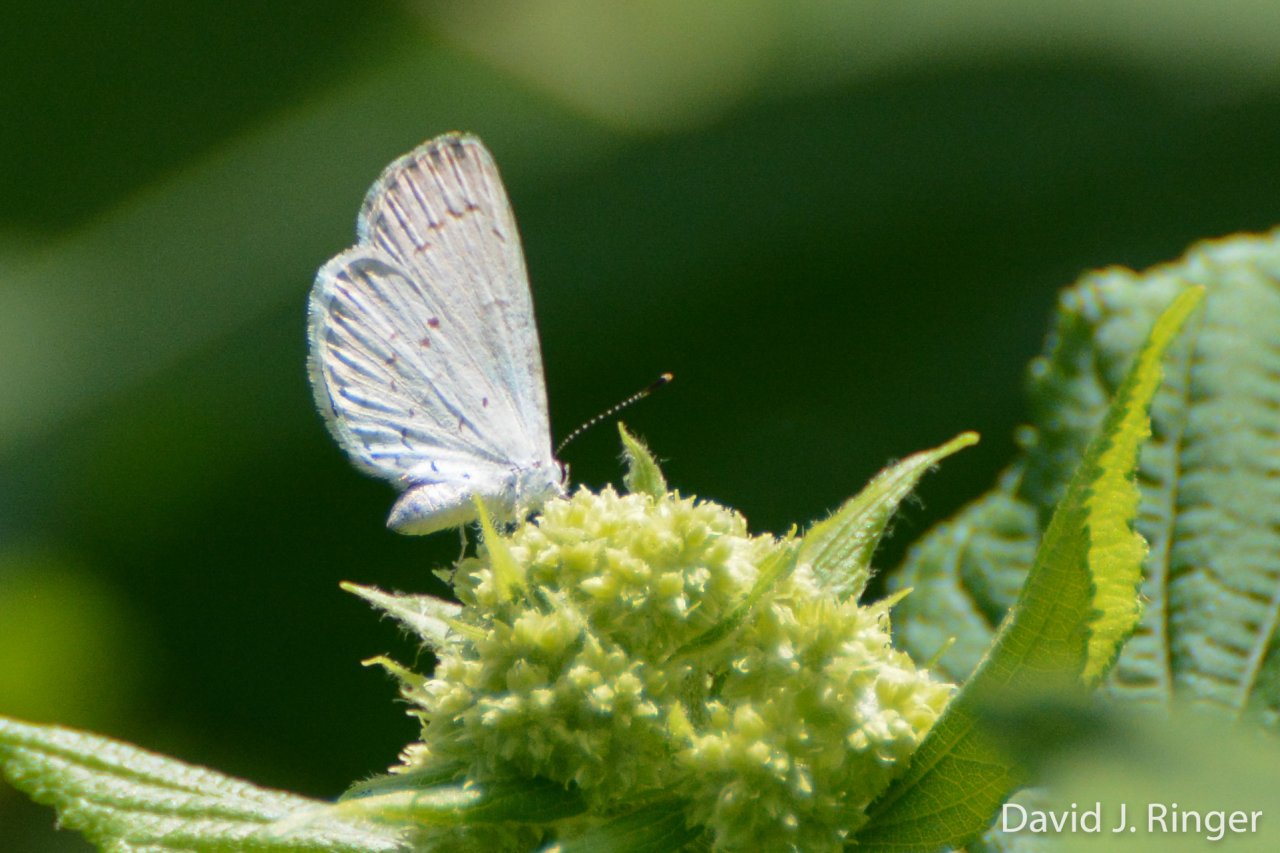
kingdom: Animalia
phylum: Arthropoda
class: Insecta
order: Lepidoptera
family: Lycaenidae
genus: Cyaniris
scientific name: Cyaniris neglecta
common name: Summer Azure
